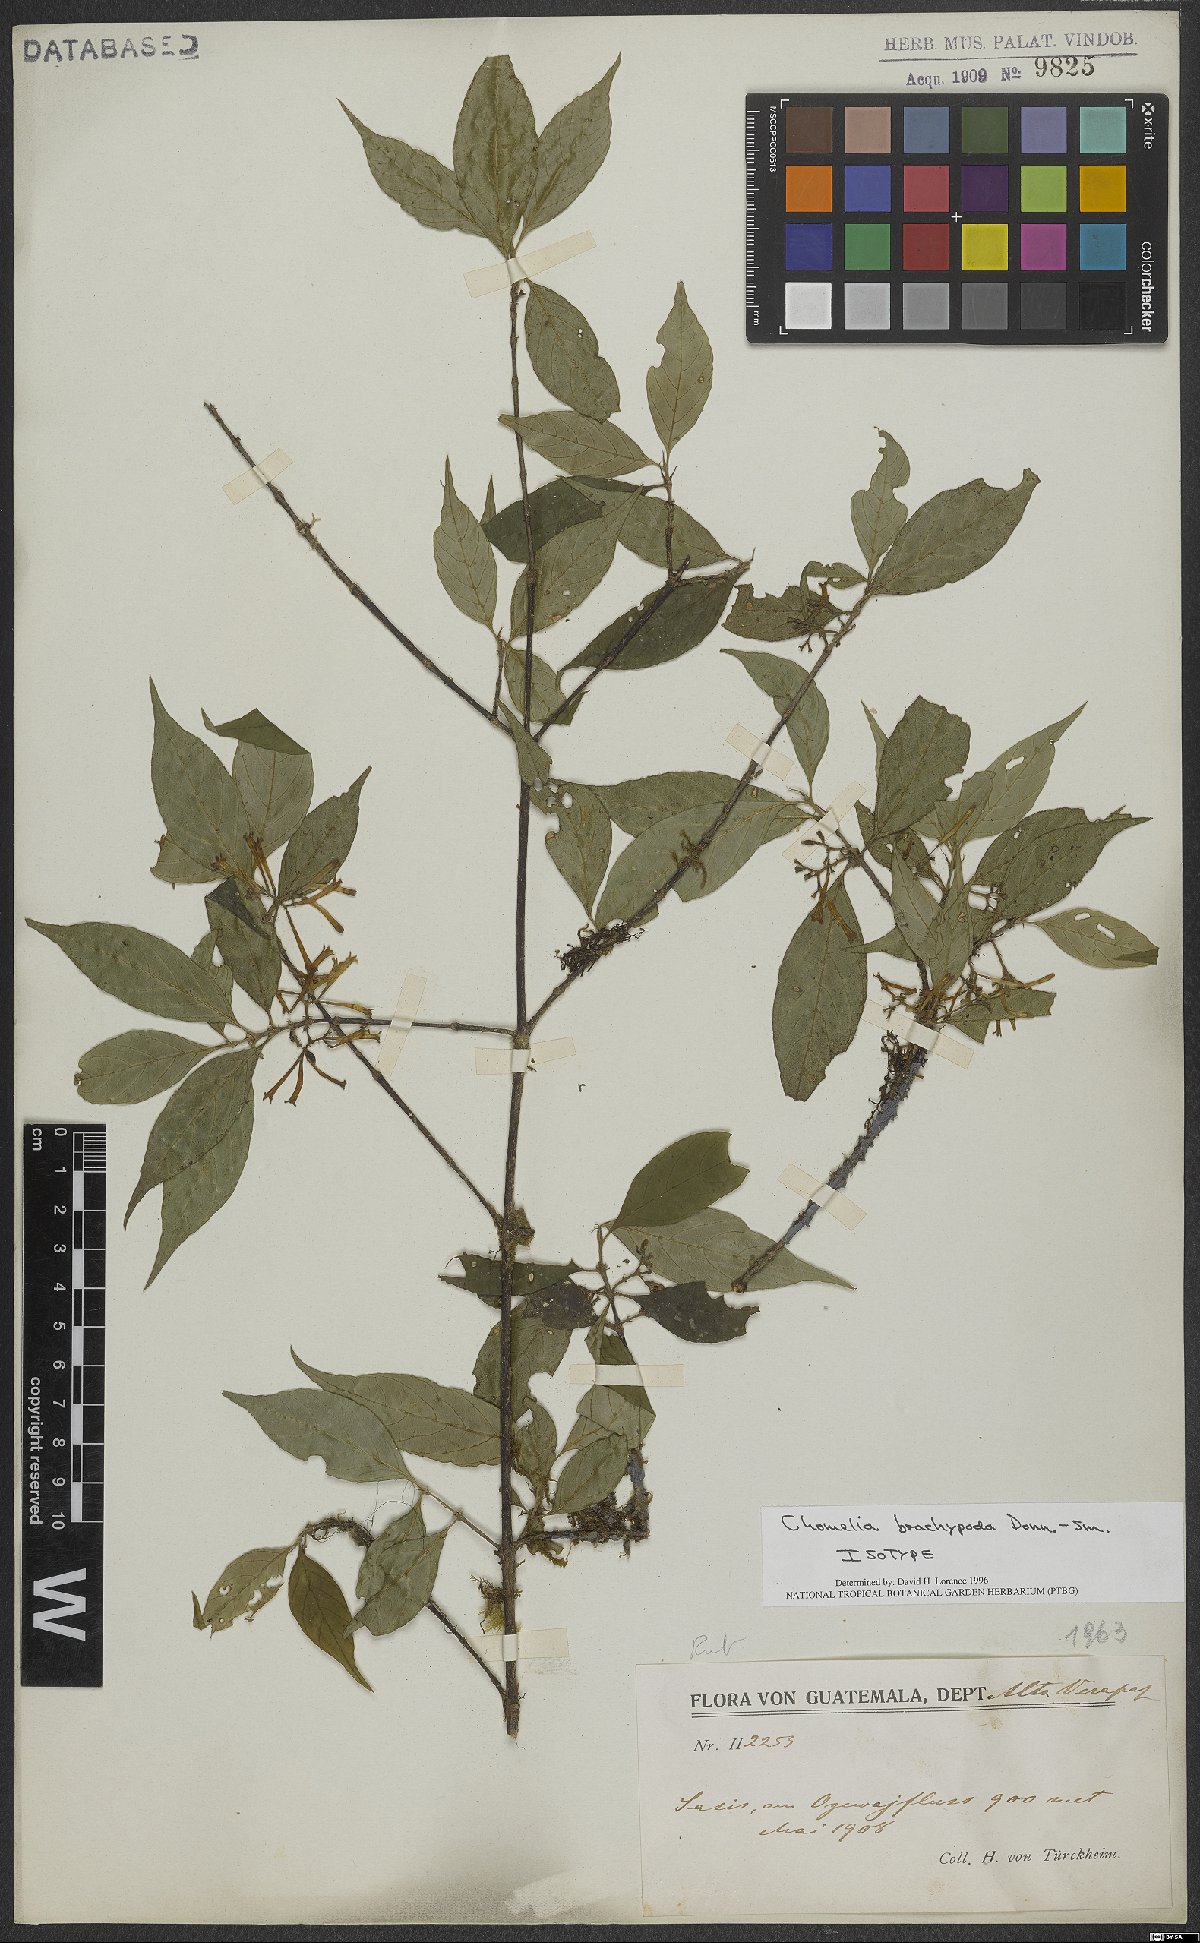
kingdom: Plantae
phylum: Tracheophyta
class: Magnoliopsida
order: Gentianales
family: Rubiaceae
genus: Chomelia
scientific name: Chomelia brachypoda
